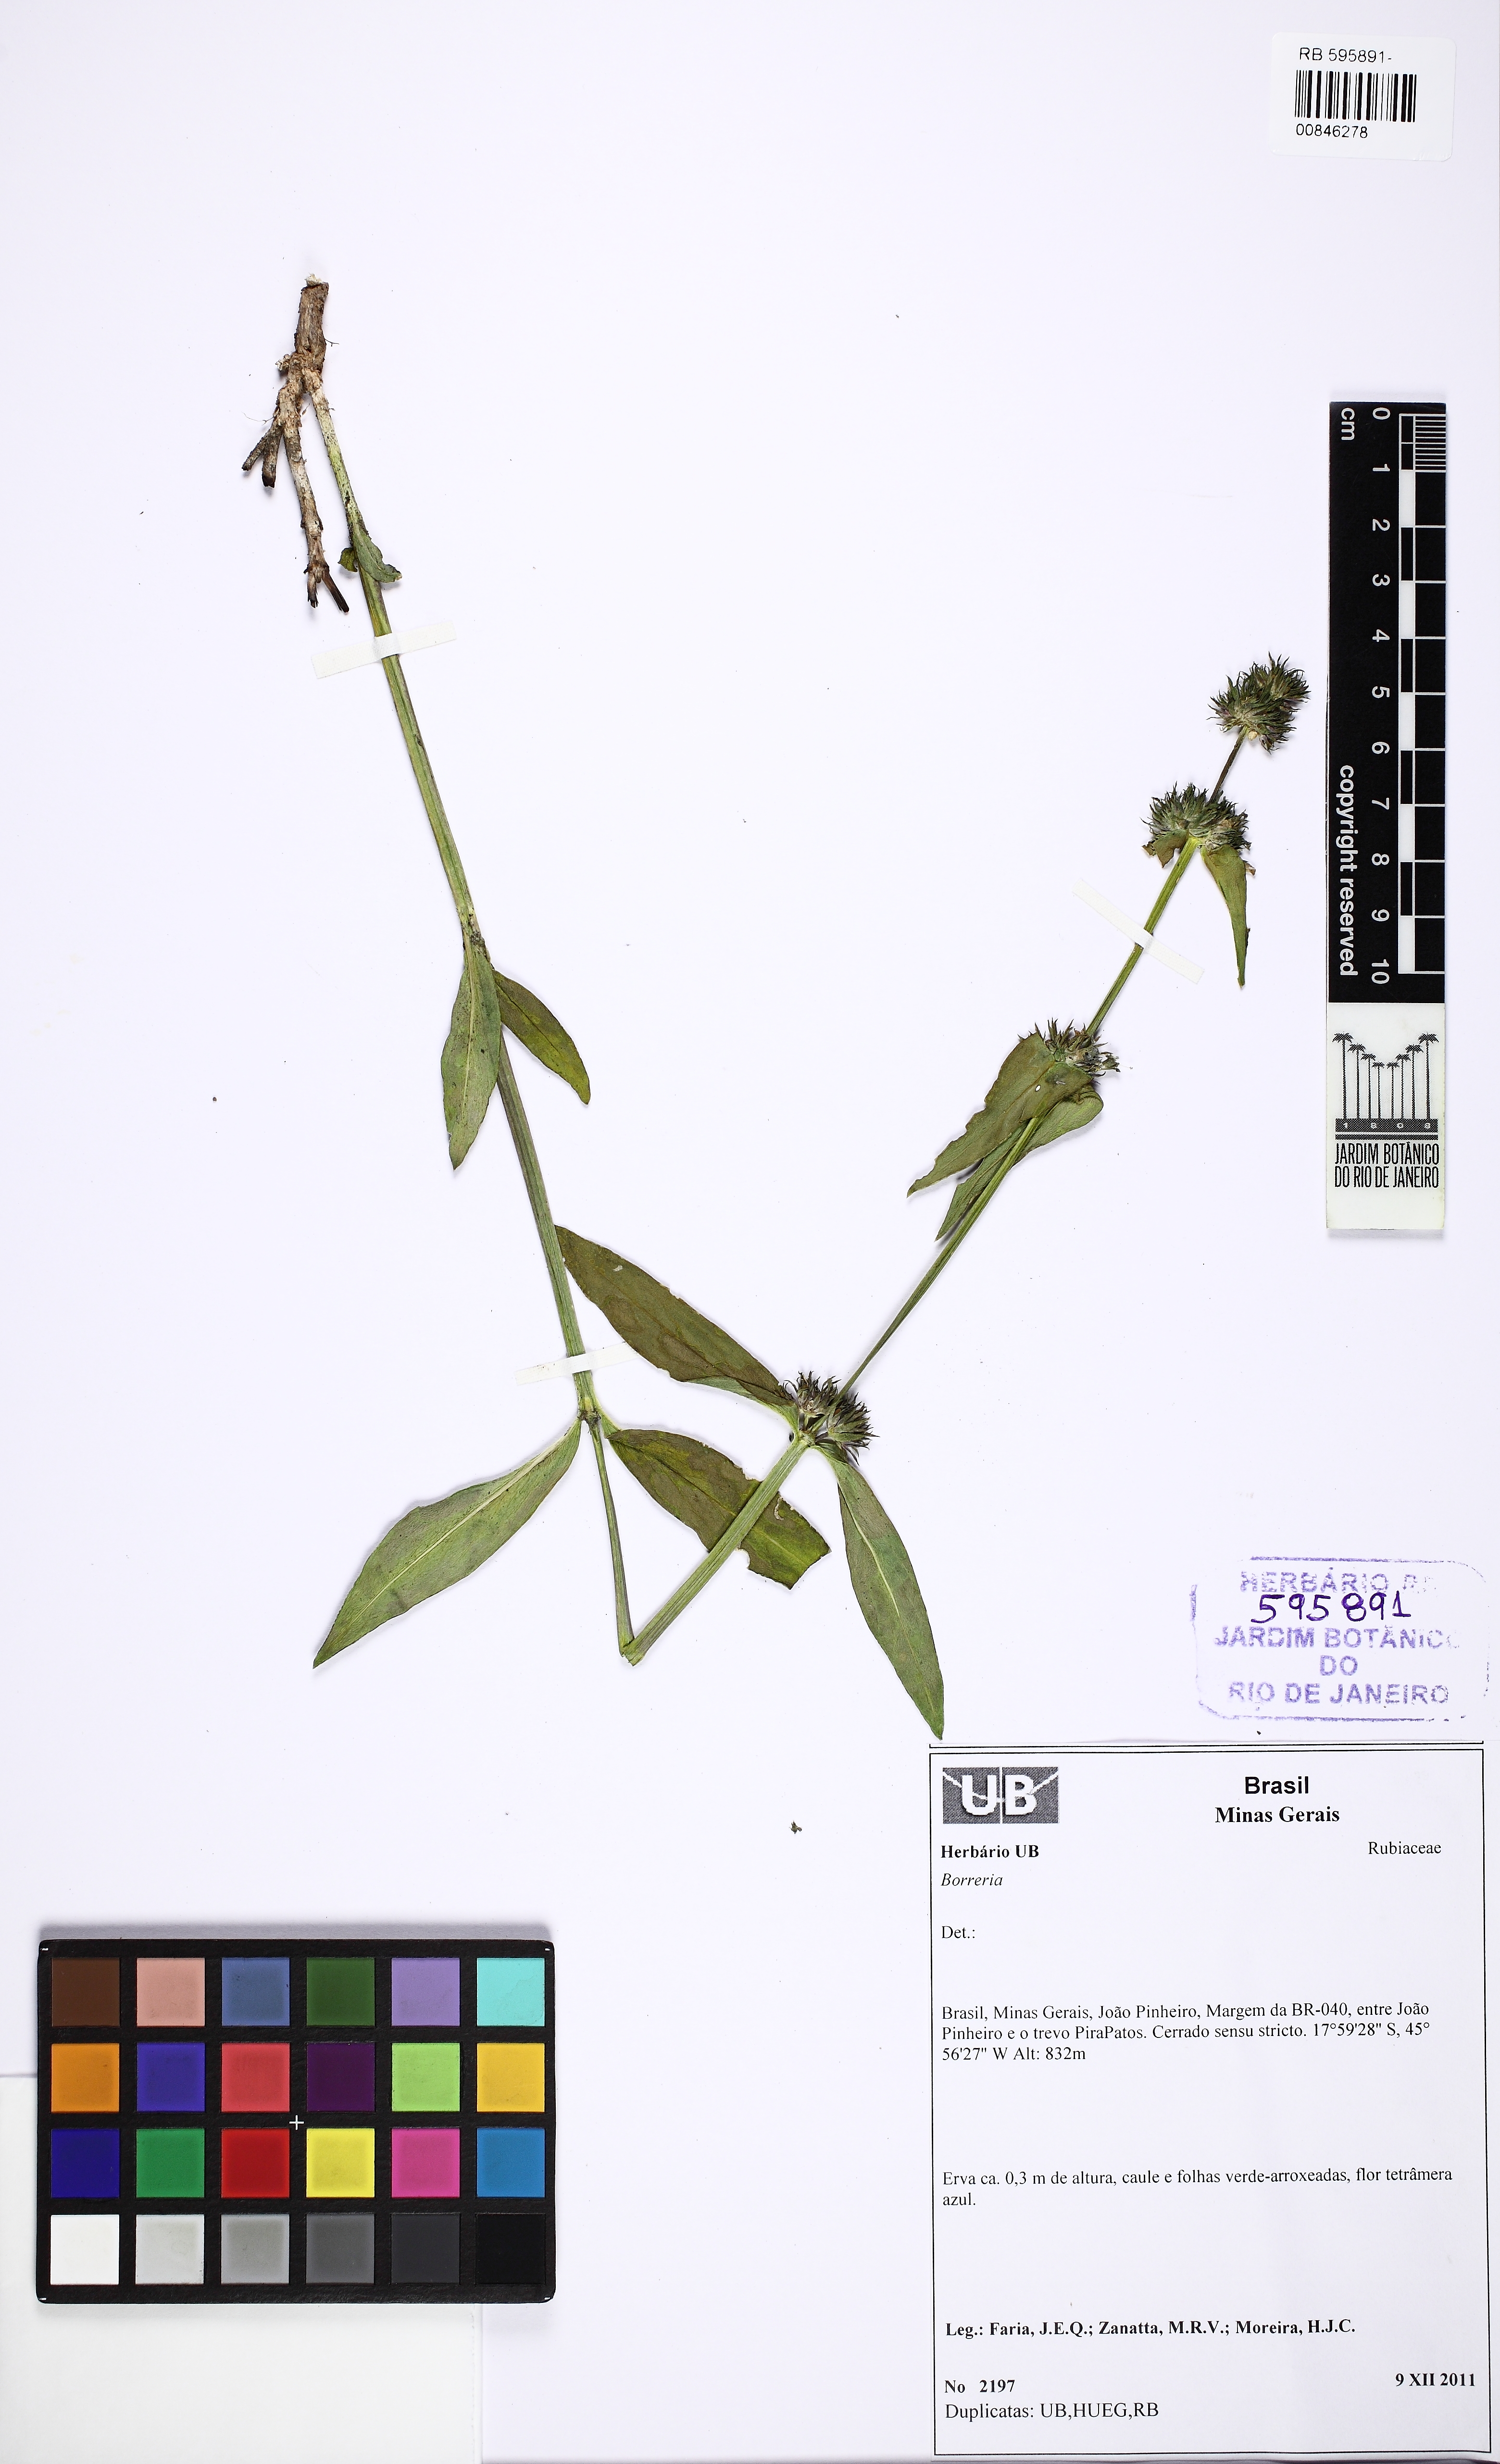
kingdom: Plantae
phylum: Tracheophyta
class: Magnoliopsida
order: Gentianales
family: Rubiaceae
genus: Spermacoce
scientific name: Spermacoce poaya
